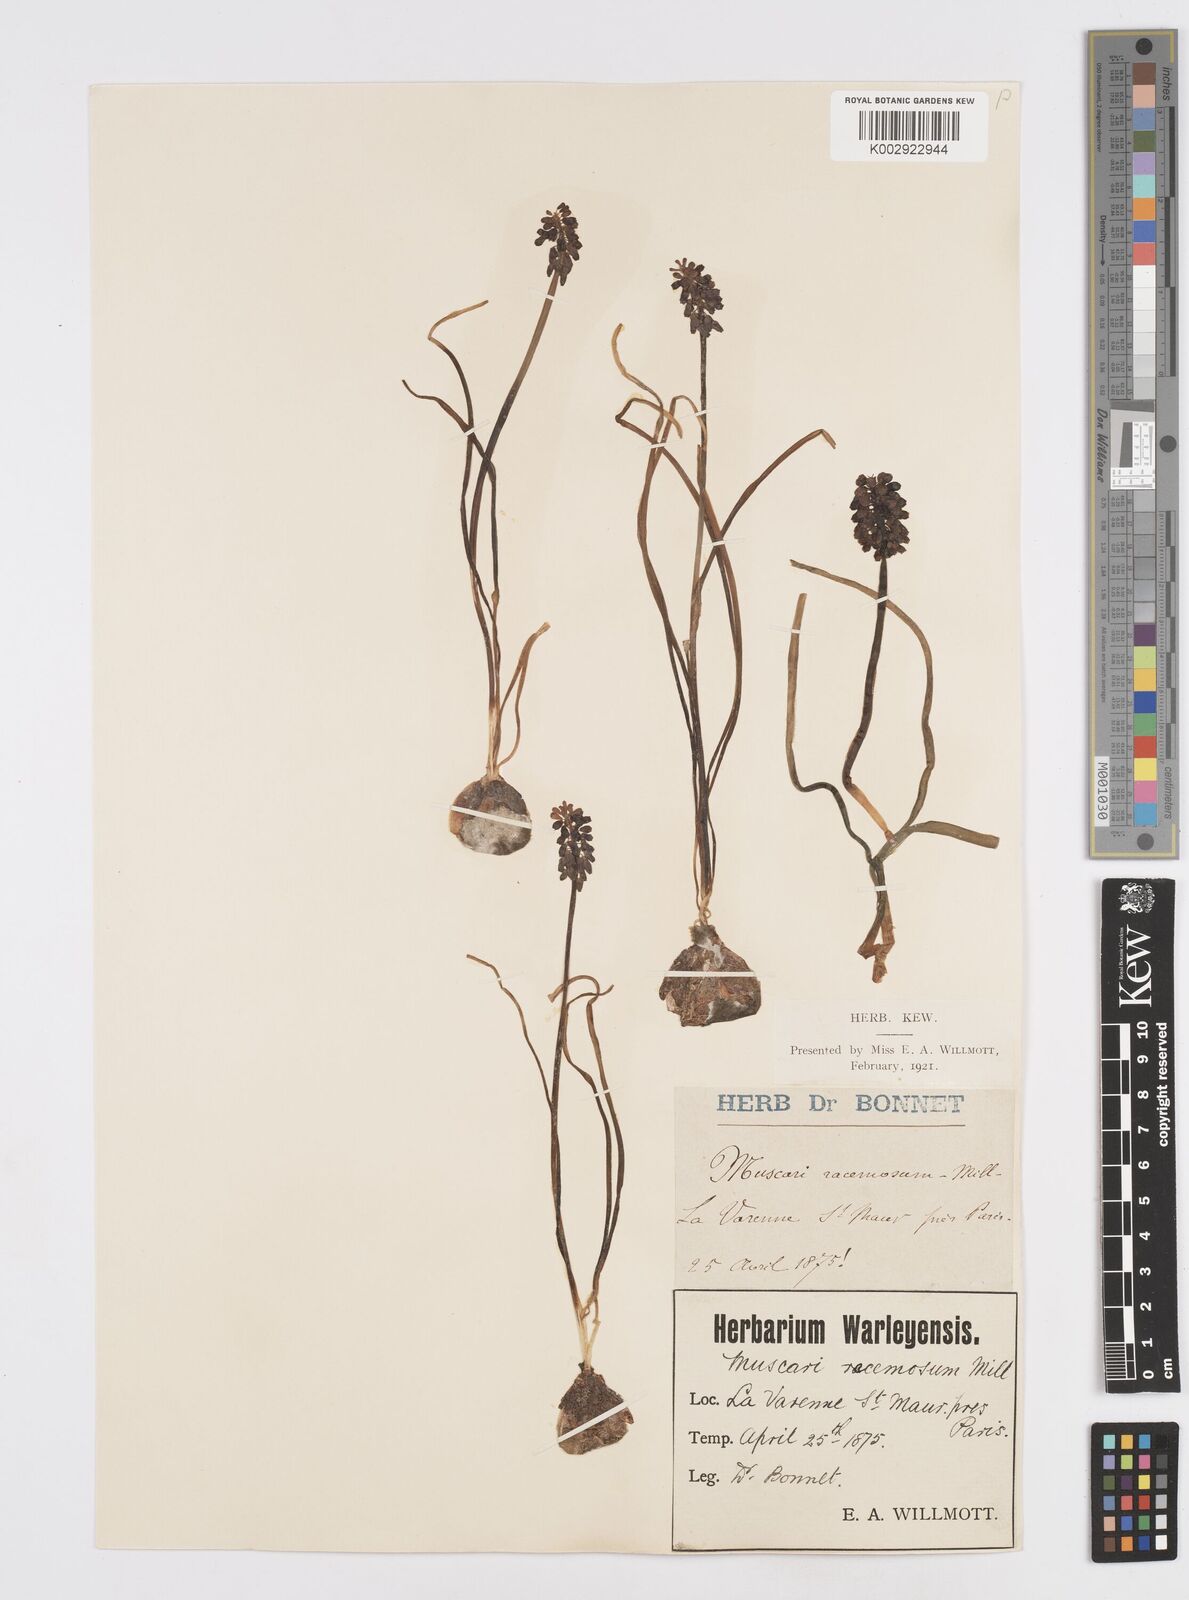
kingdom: Plantae
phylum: Tracheophyta
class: Liliopsida
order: Asparagales
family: Asparagaceae
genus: Muscari
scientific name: Muscari neglectum
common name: Grape-hyacinth
